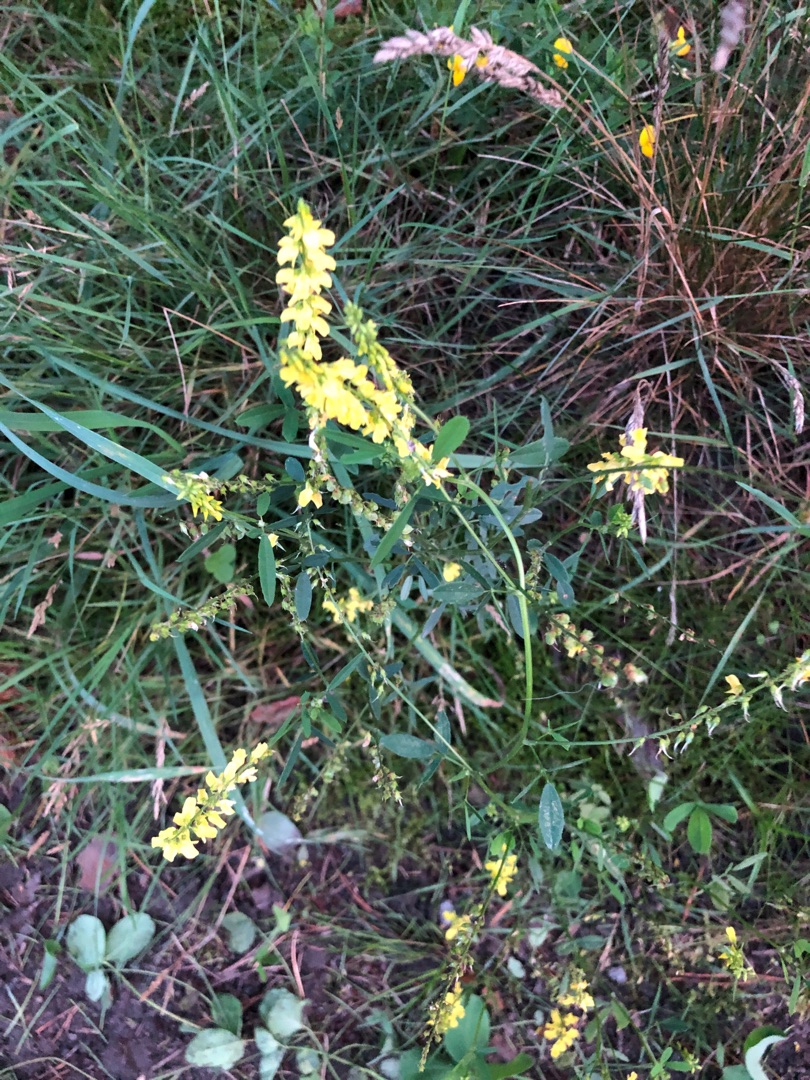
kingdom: Plantae
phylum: Tracheophyta
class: Magnoliopsida
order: Fabales
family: Fabaceae
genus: Melilotus
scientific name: Melilotus
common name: Stenkløverslægten
